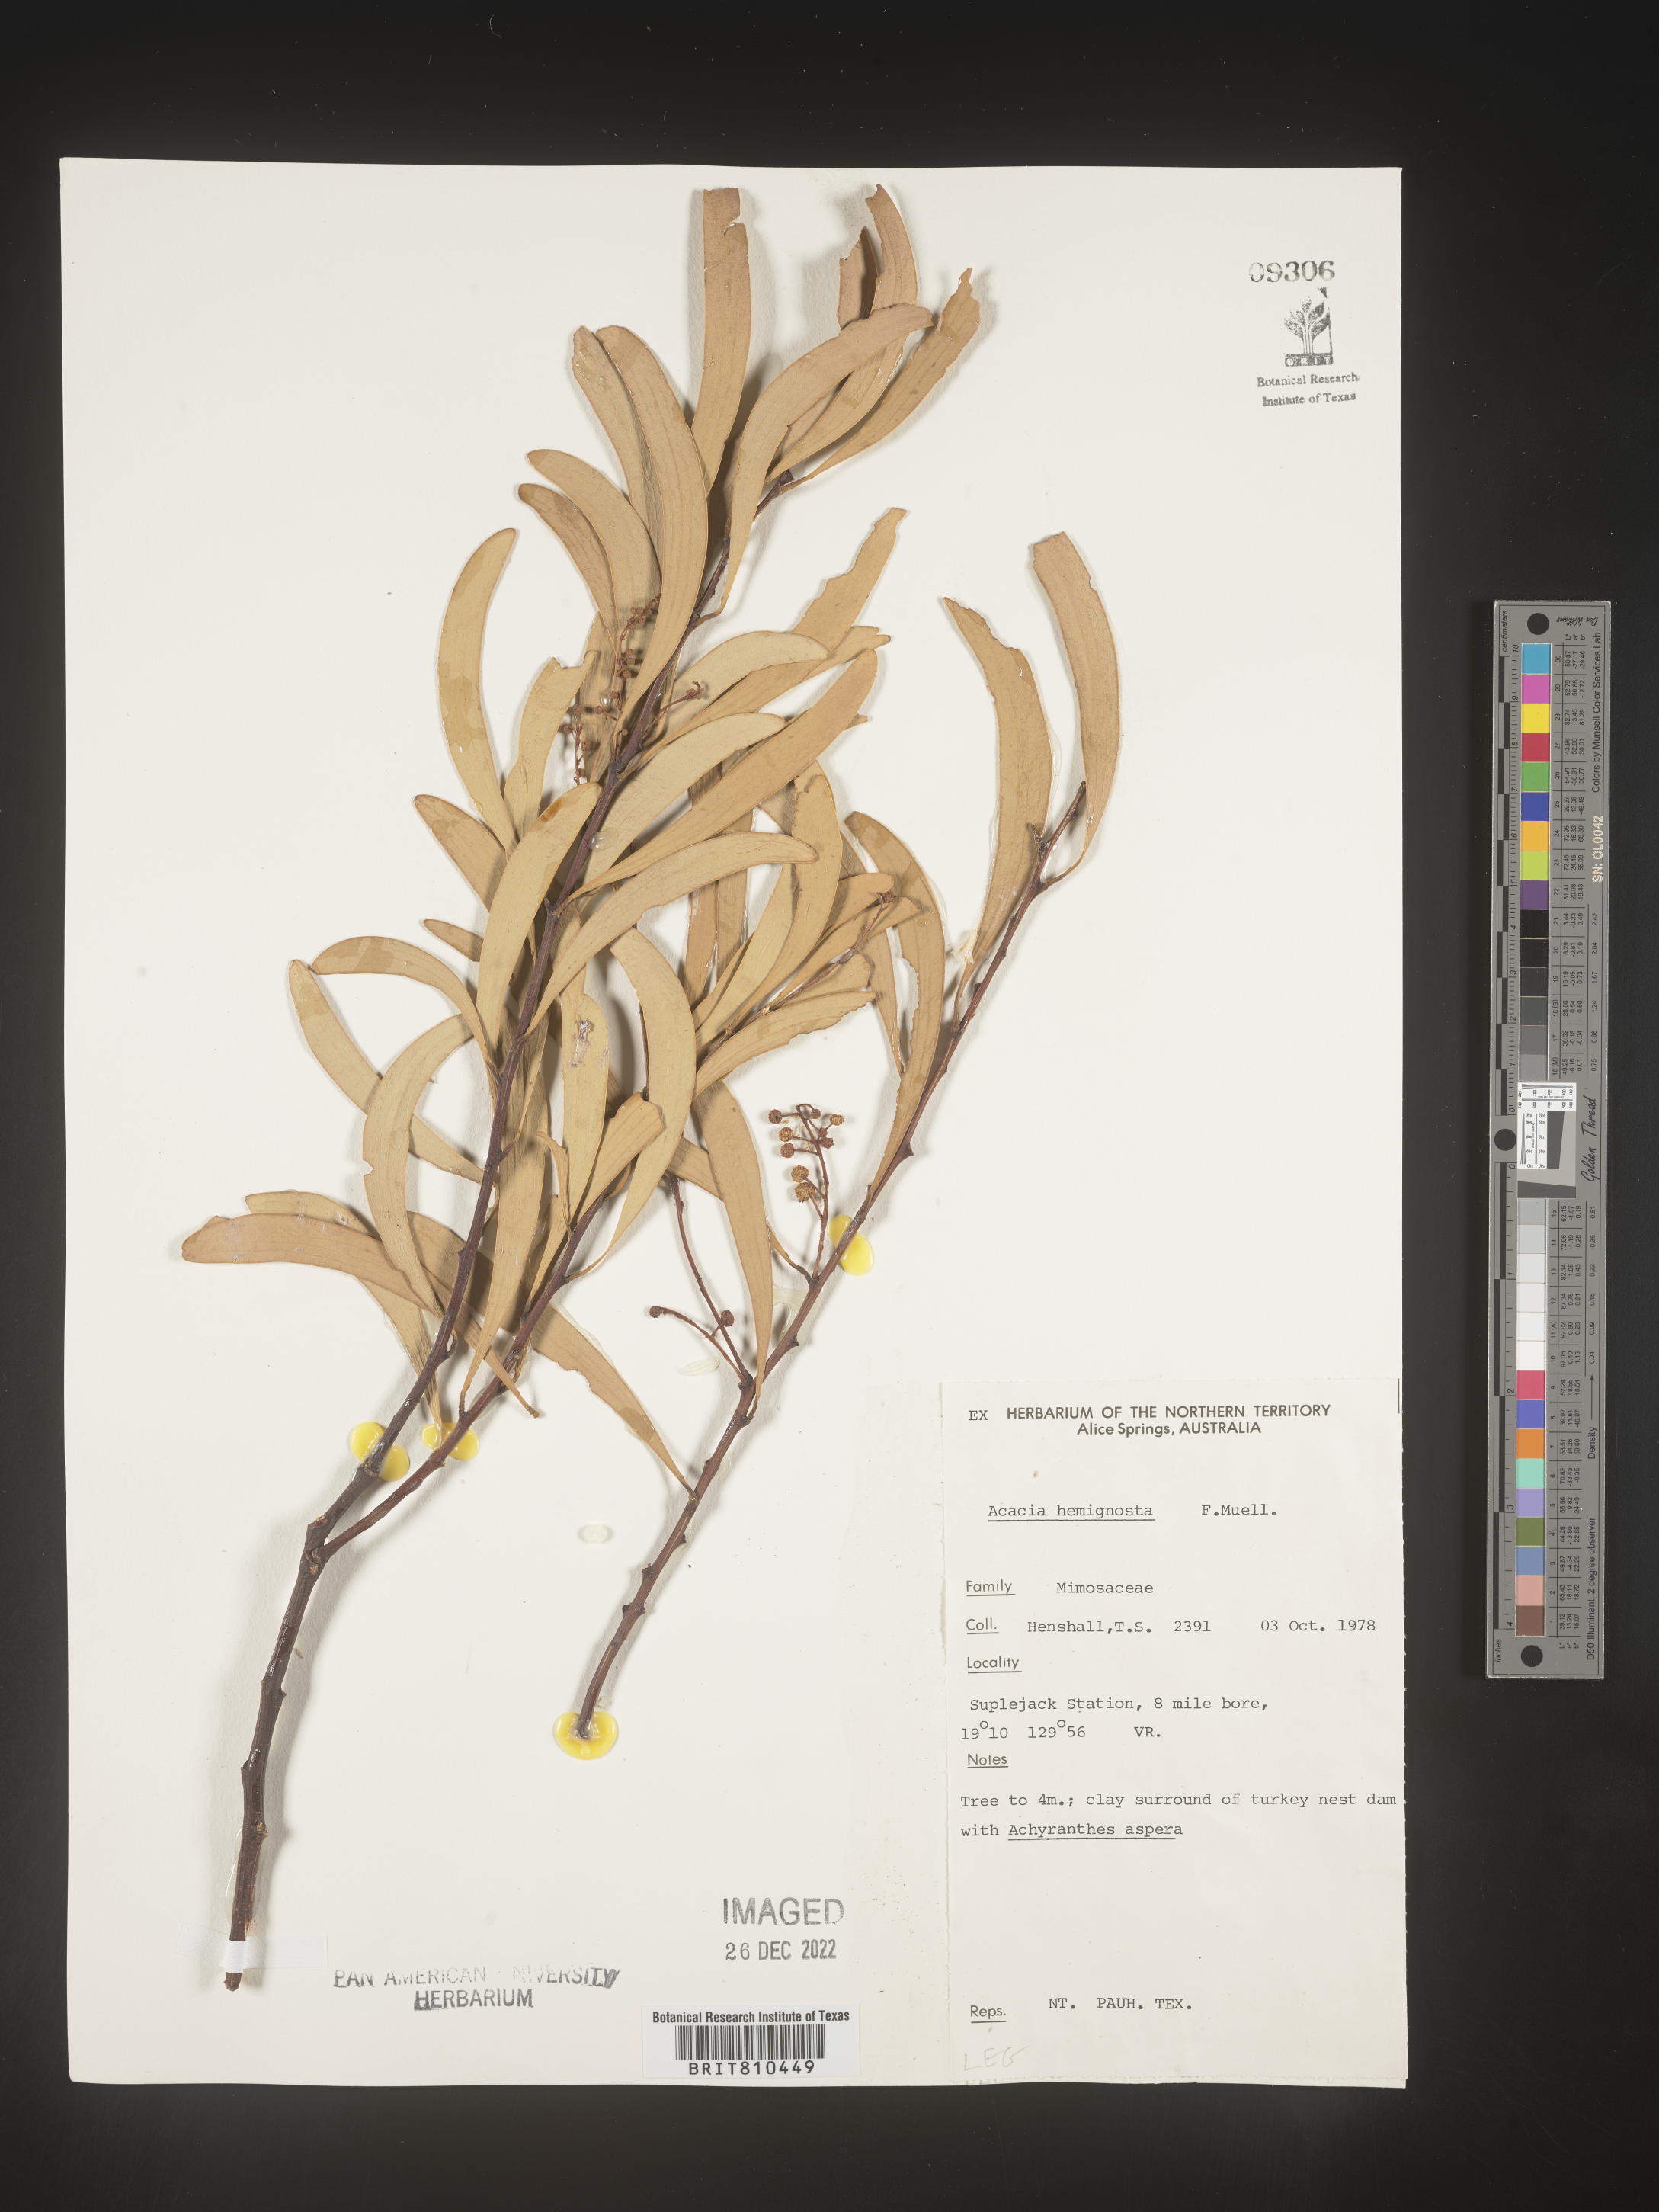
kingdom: Plantae
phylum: Tracheophyta
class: Magnoliopsida
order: Fabales
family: Fabaceae
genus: Acacia
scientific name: Acacia
